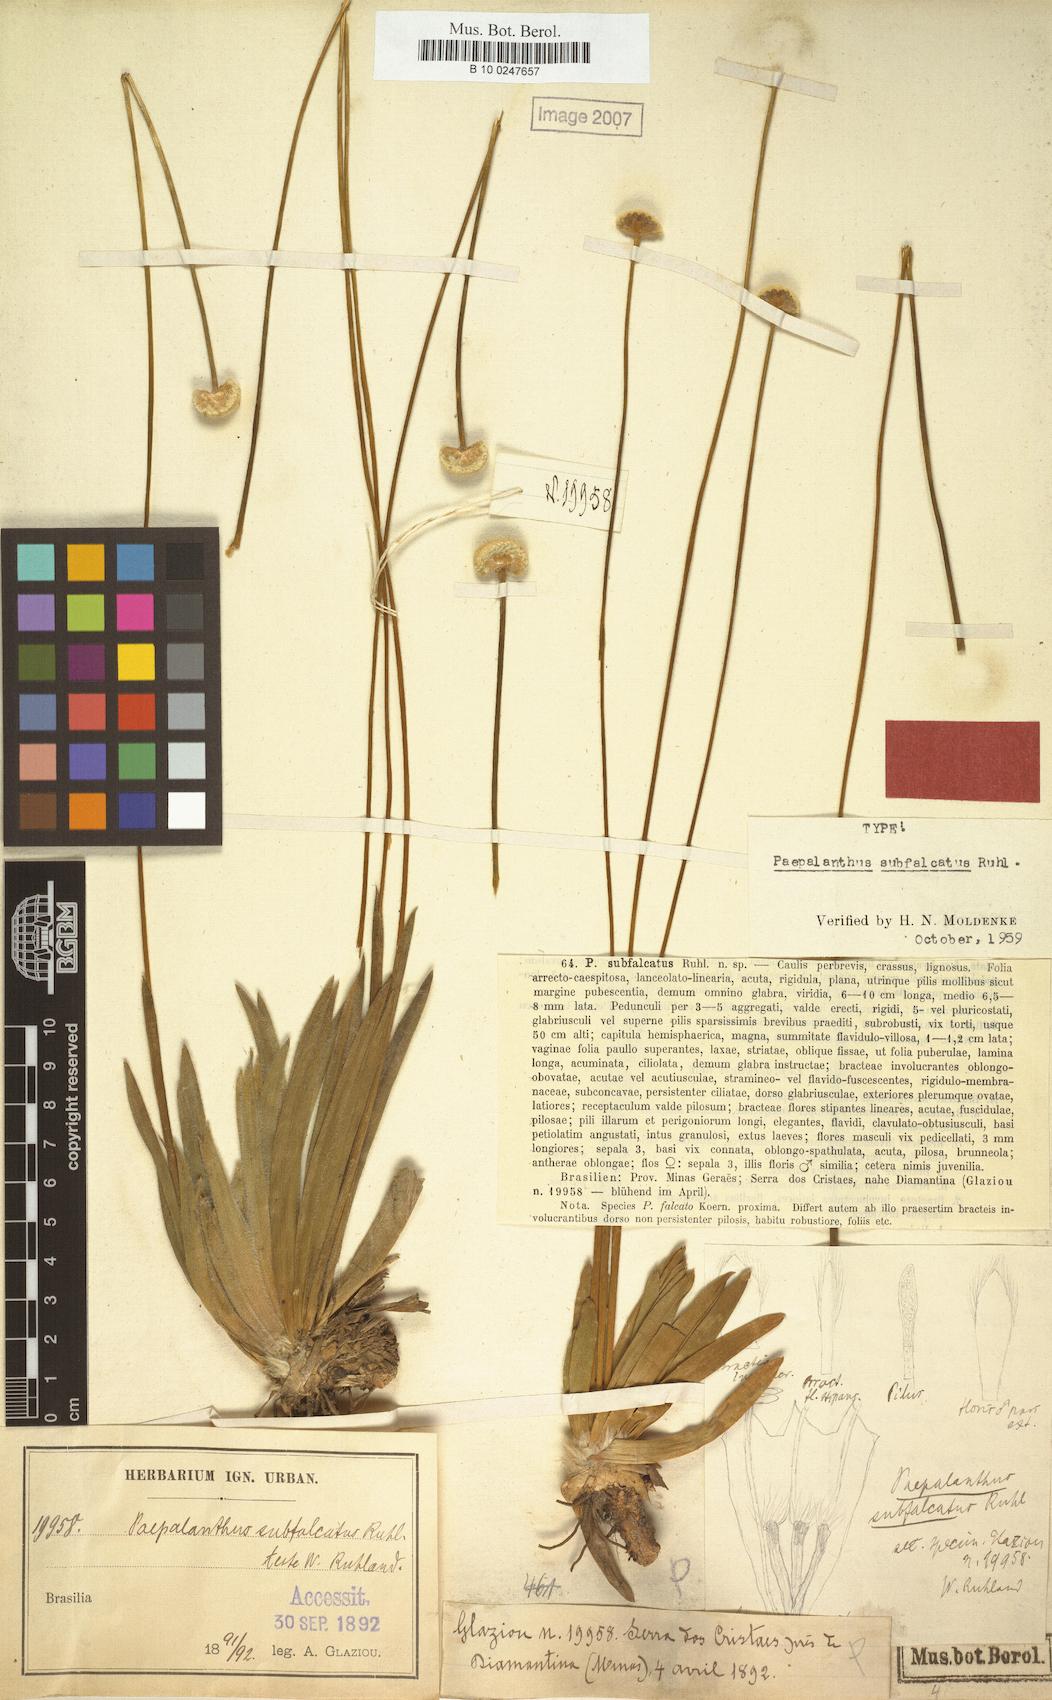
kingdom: Plantae
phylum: Tracheophyta
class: Liliopsida
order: Poales
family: Eriocaulaceae
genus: Paepalanthus
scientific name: Paepalanthus subfalcatus
